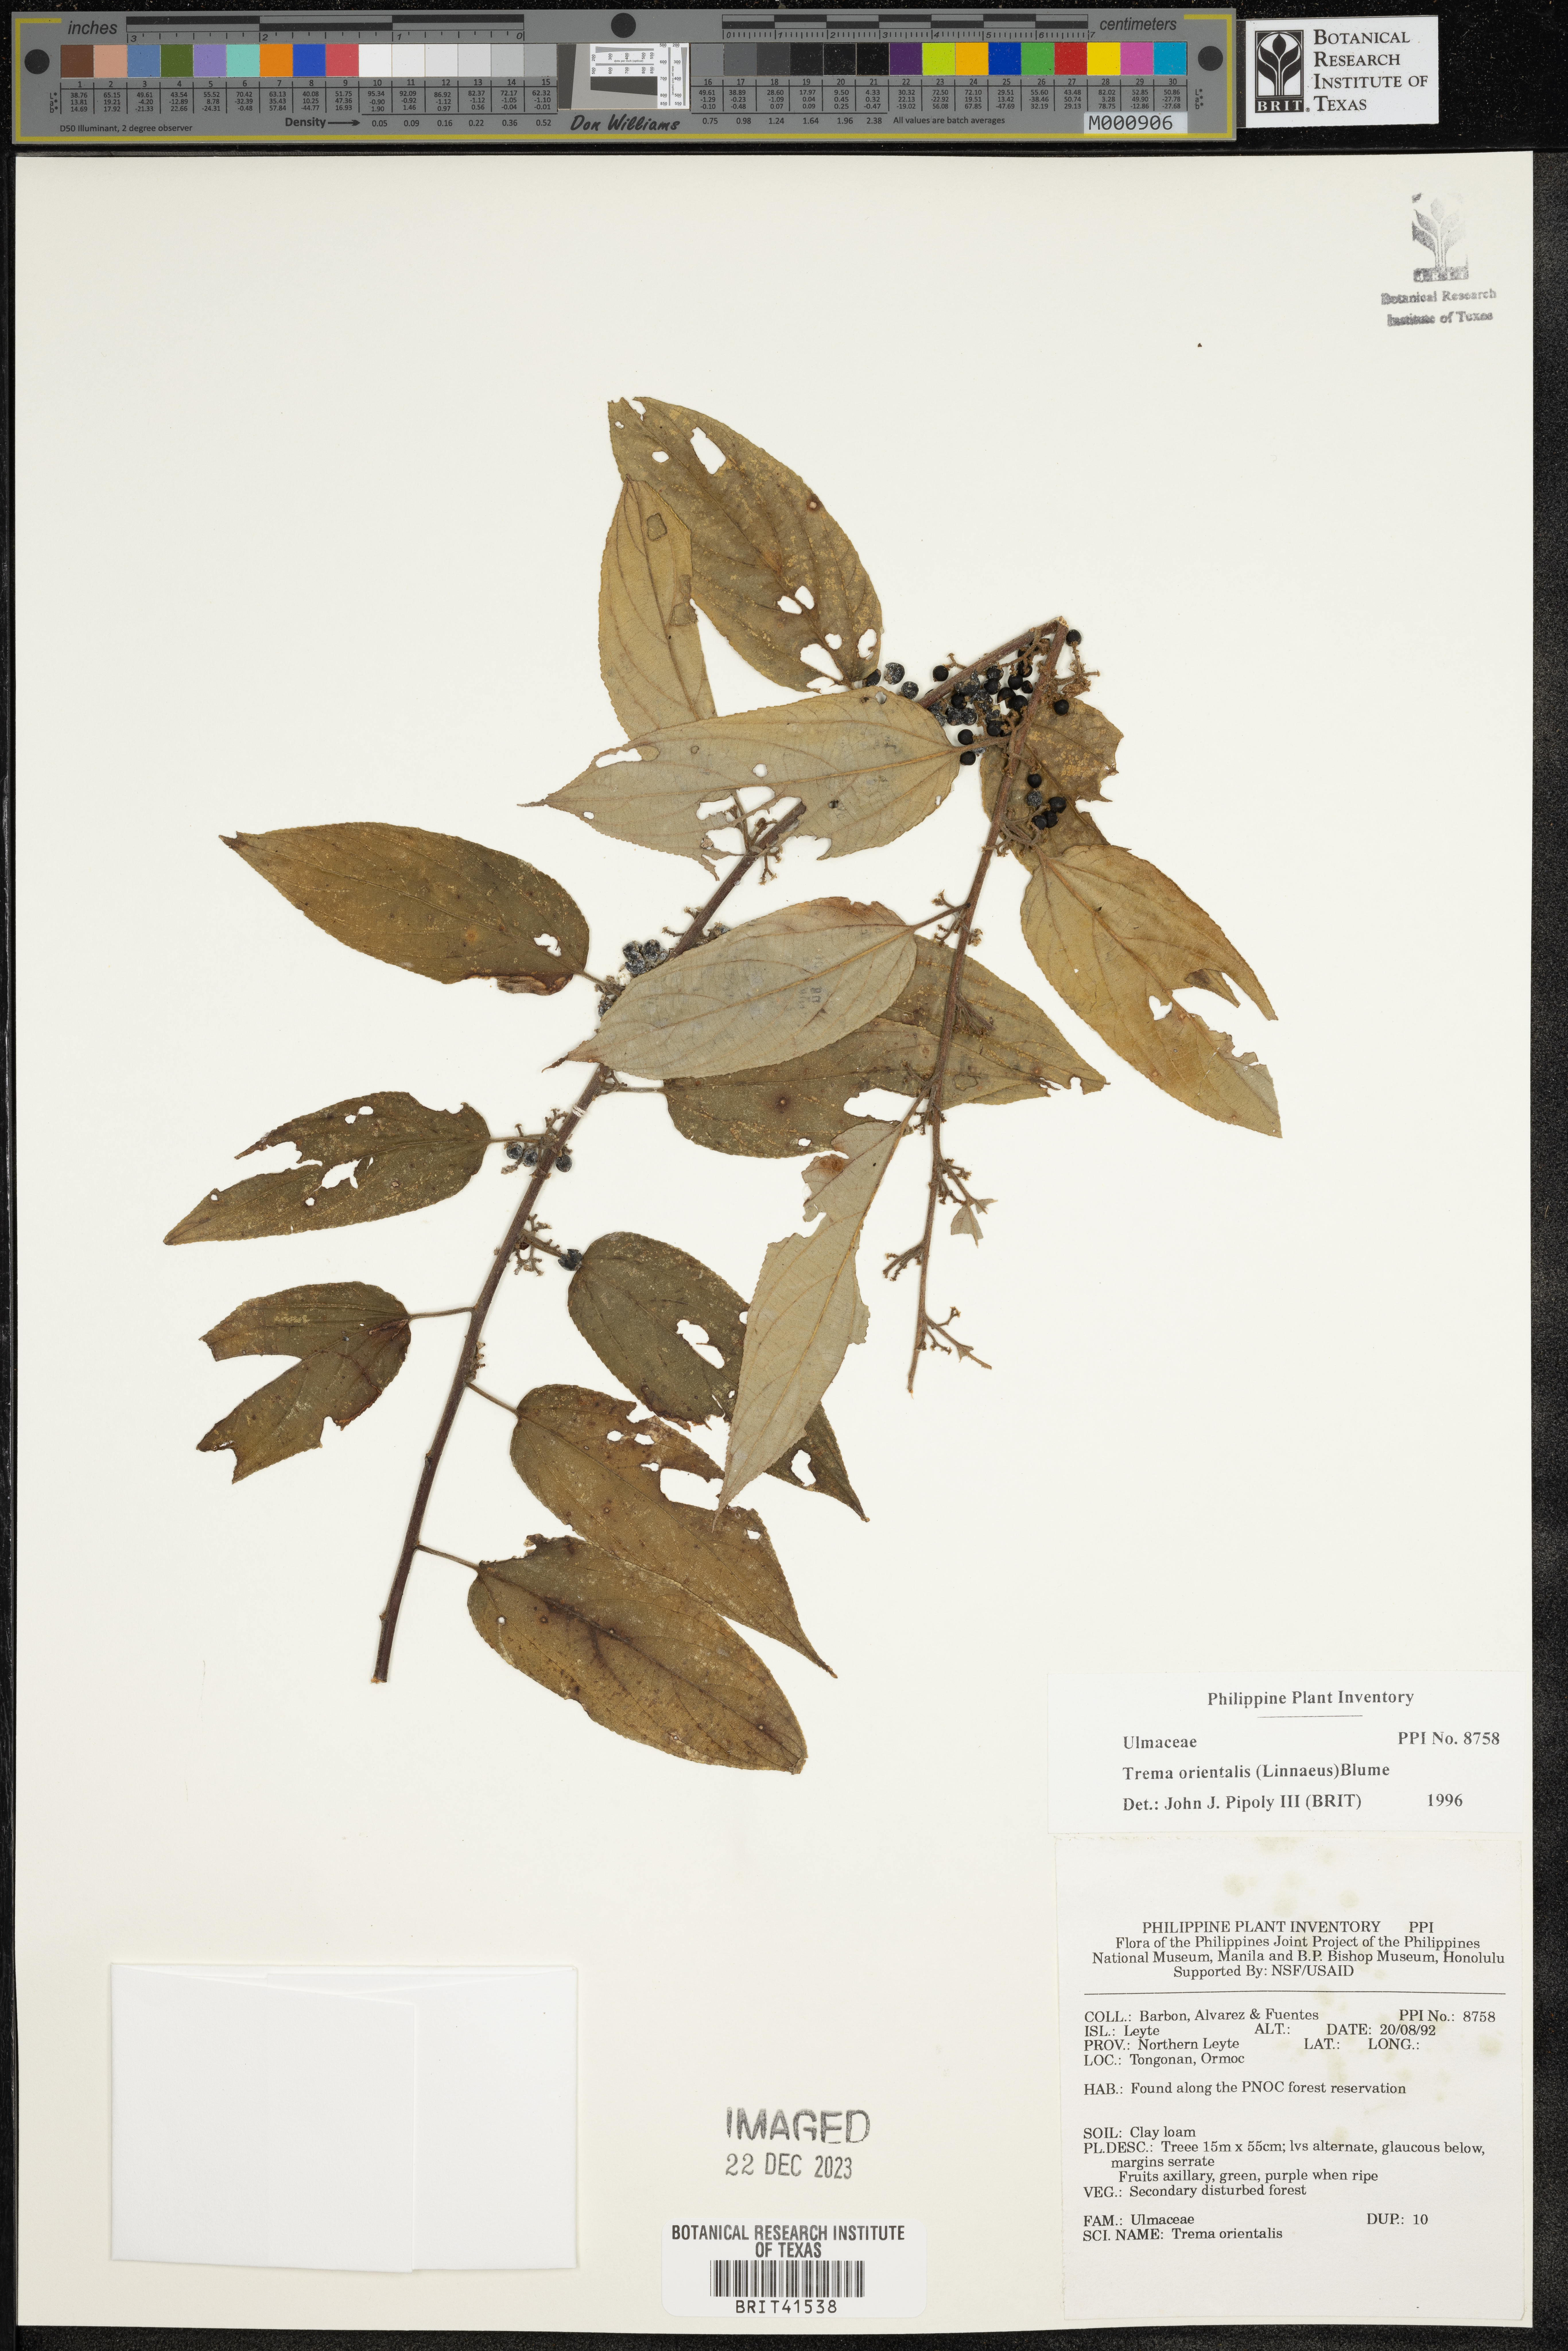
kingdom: Plantae
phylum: Tracheophyta
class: Magnoliopsida
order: Rosales
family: Cannabaceae
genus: Trema
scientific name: Trema orientale
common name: Indian charcoal tree
